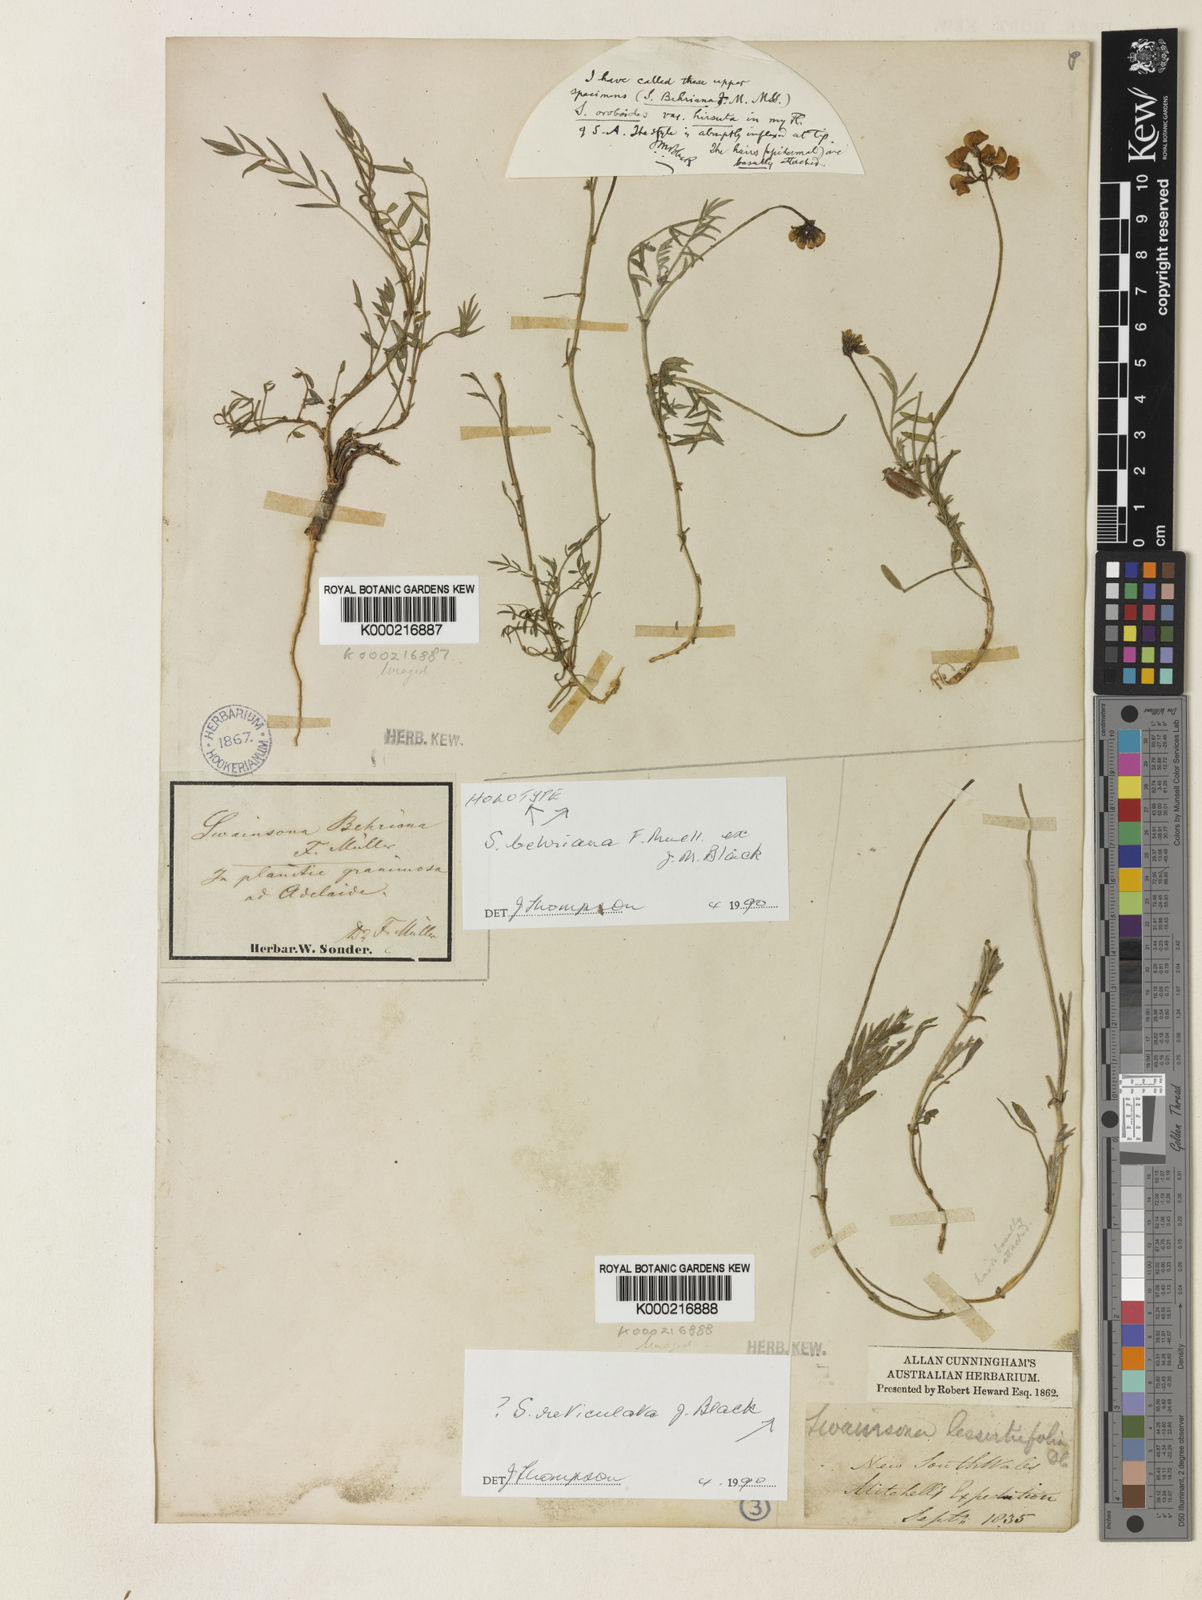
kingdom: Plantae
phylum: Tracheophyta
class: Magnoliopsida
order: Fabales
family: Fabaceae
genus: Swainsona
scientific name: Swainsona behriana
